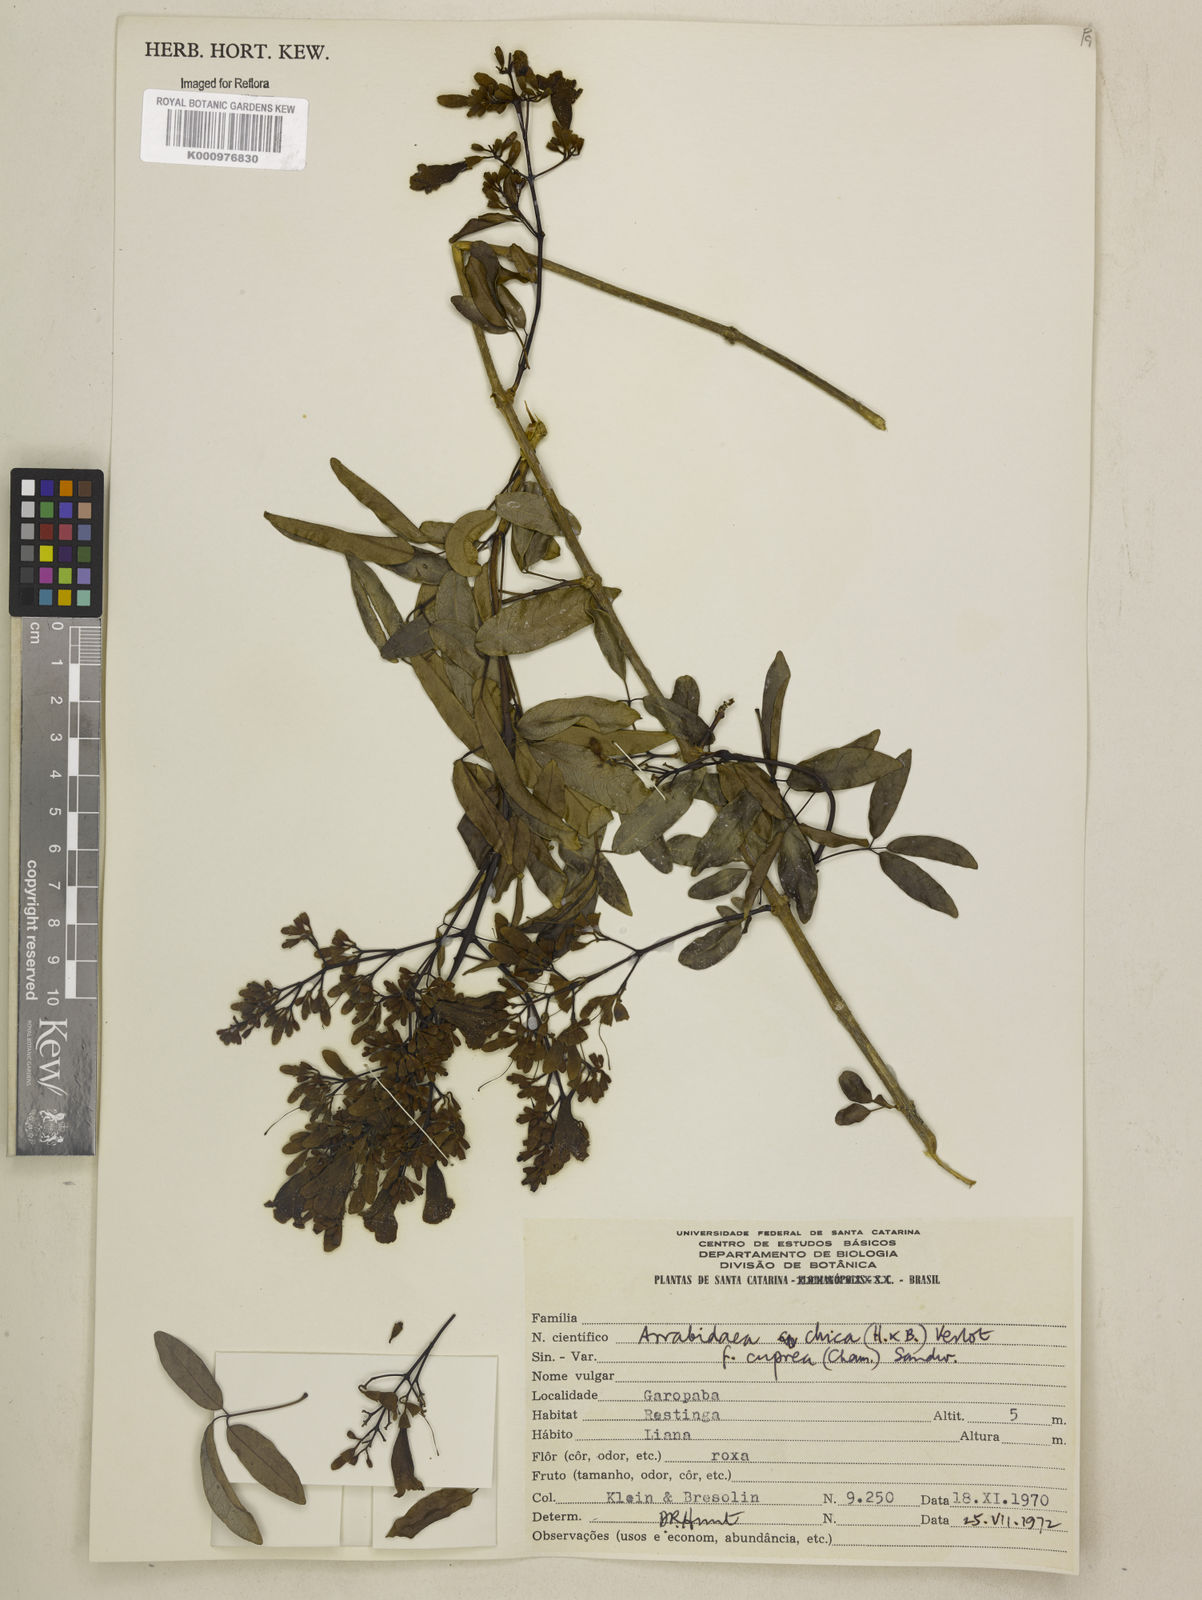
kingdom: Plantae
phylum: Tracheophyta
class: Magnoliopsida
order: Lamiales
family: Bignoniaceae
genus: Fridericia
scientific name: Fridericia chica
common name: Cricketvine
